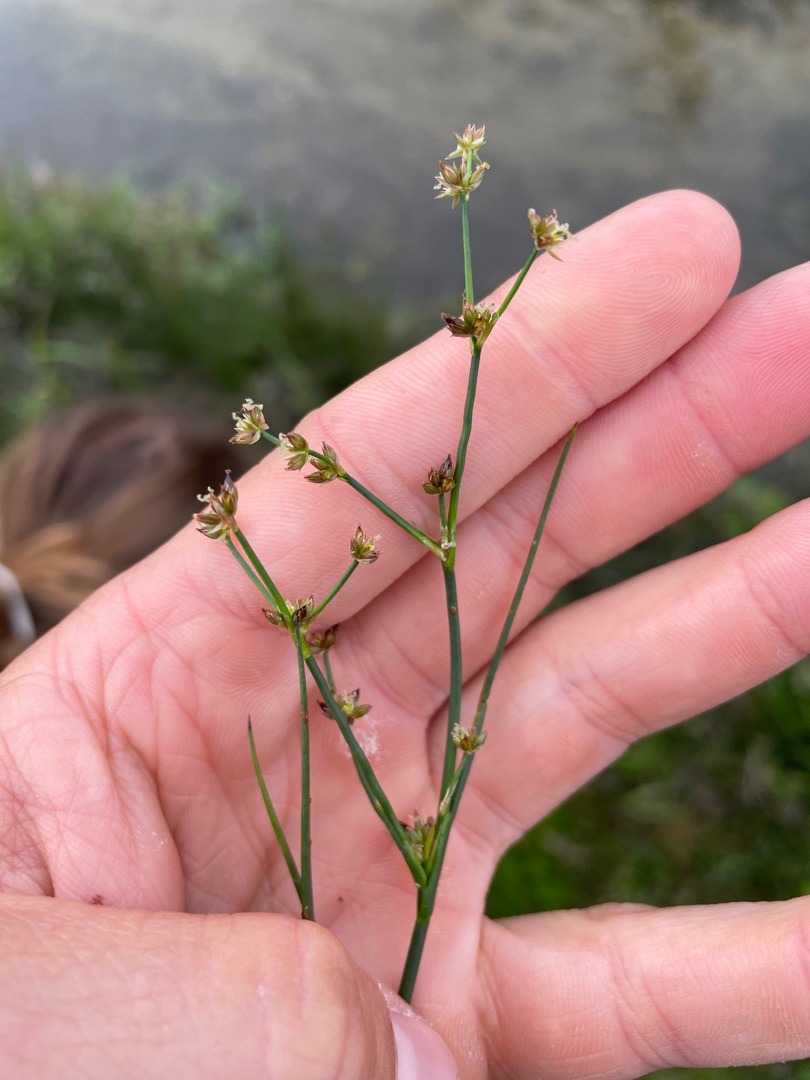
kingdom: Plantae
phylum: Tracheophyta
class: Liliopsida
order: Poales
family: Juncaceae
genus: Juncus
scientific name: Juncus articulatus
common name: Glanskapslet siv
